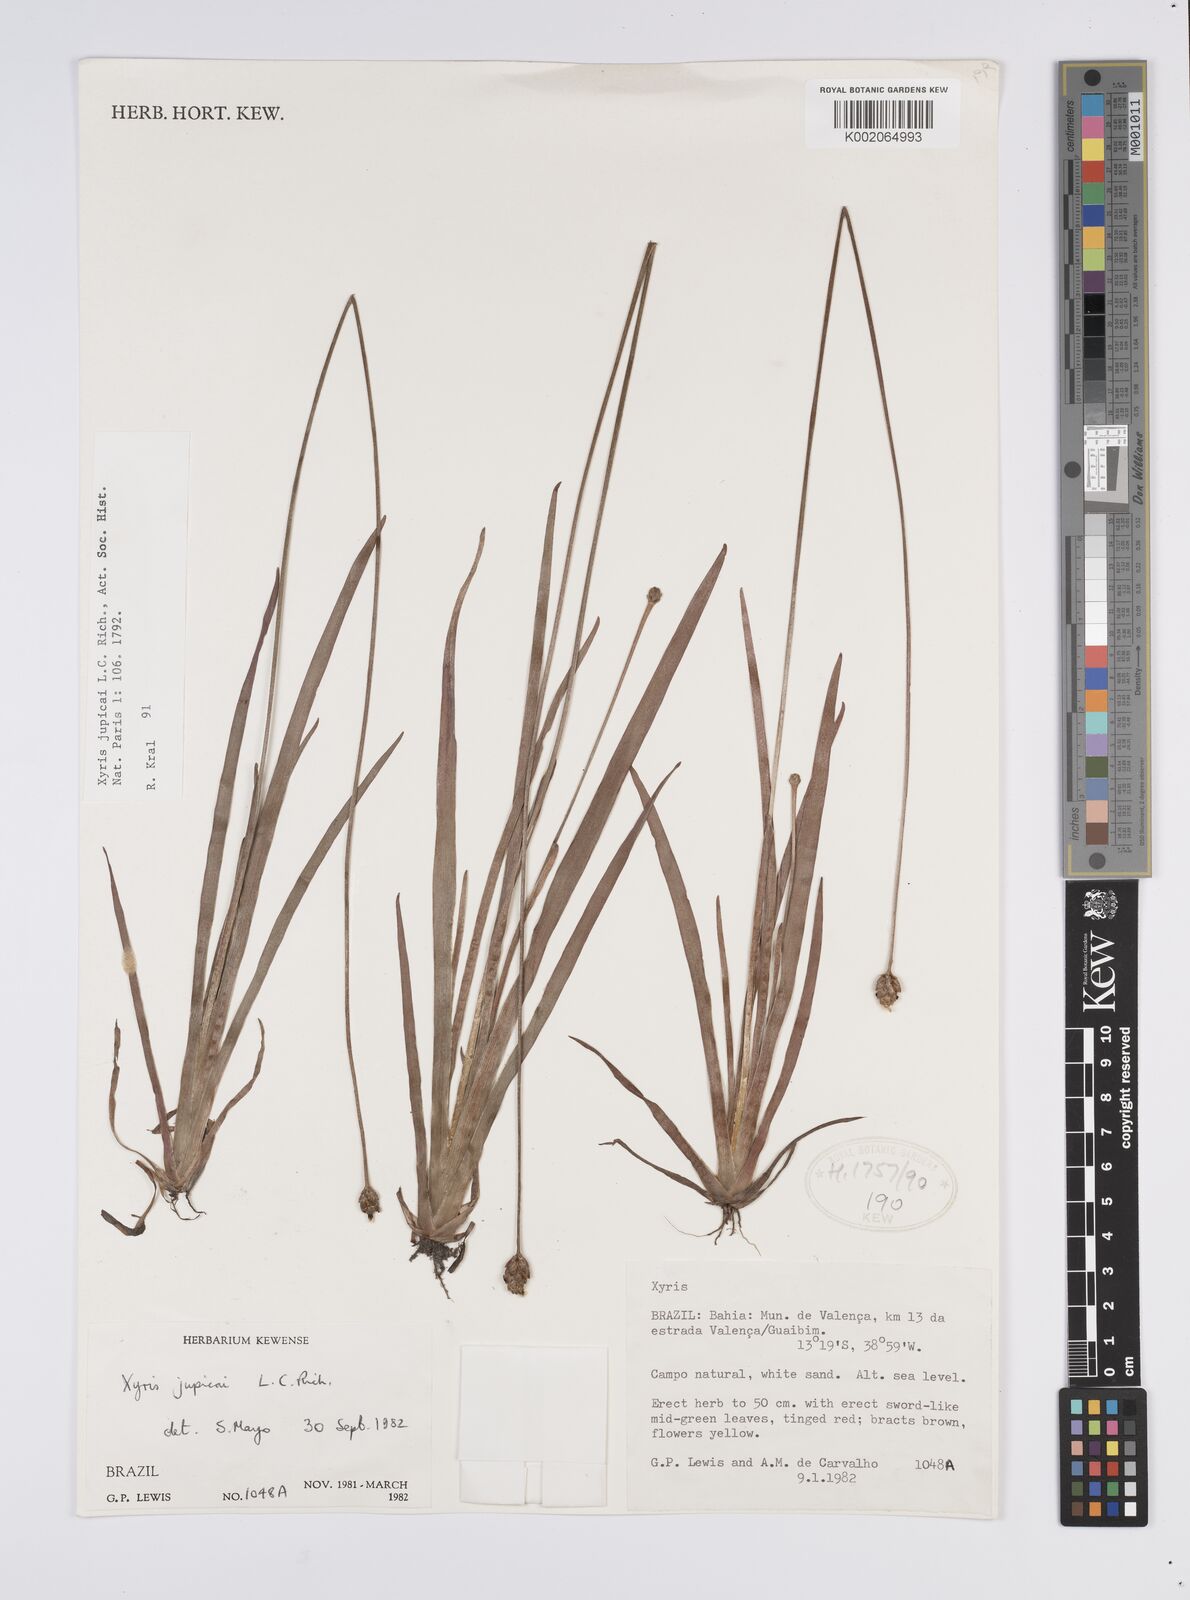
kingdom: Plantae
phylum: Tracheophyta
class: Liliopsida
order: Poales
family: Xyridaceae
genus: Xyris
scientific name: Xyris jupicai
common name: Richard's yelloweyed grass
